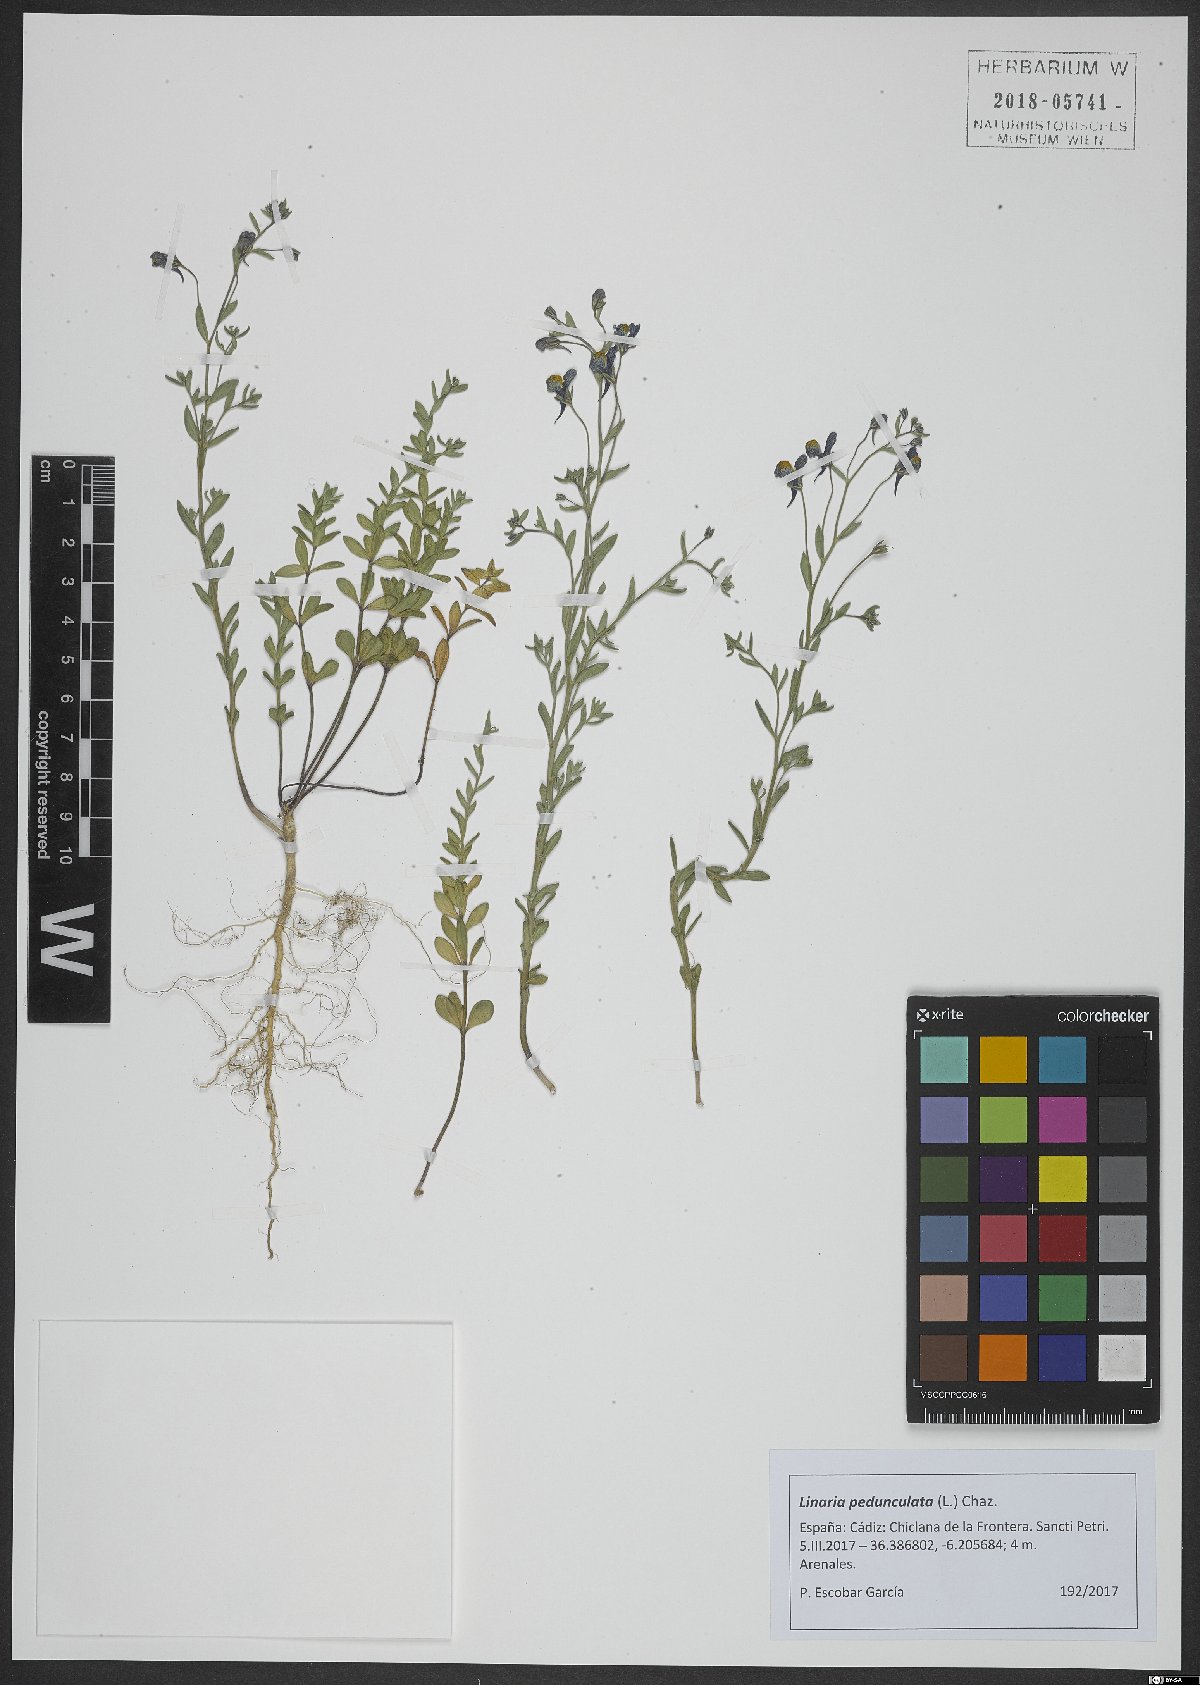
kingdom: Plantae
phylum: Tracheophyta
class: Magnoliopsida
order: Lamiales
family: Plantaginaceae
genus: Linaria
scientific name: Linaria pedunculata
